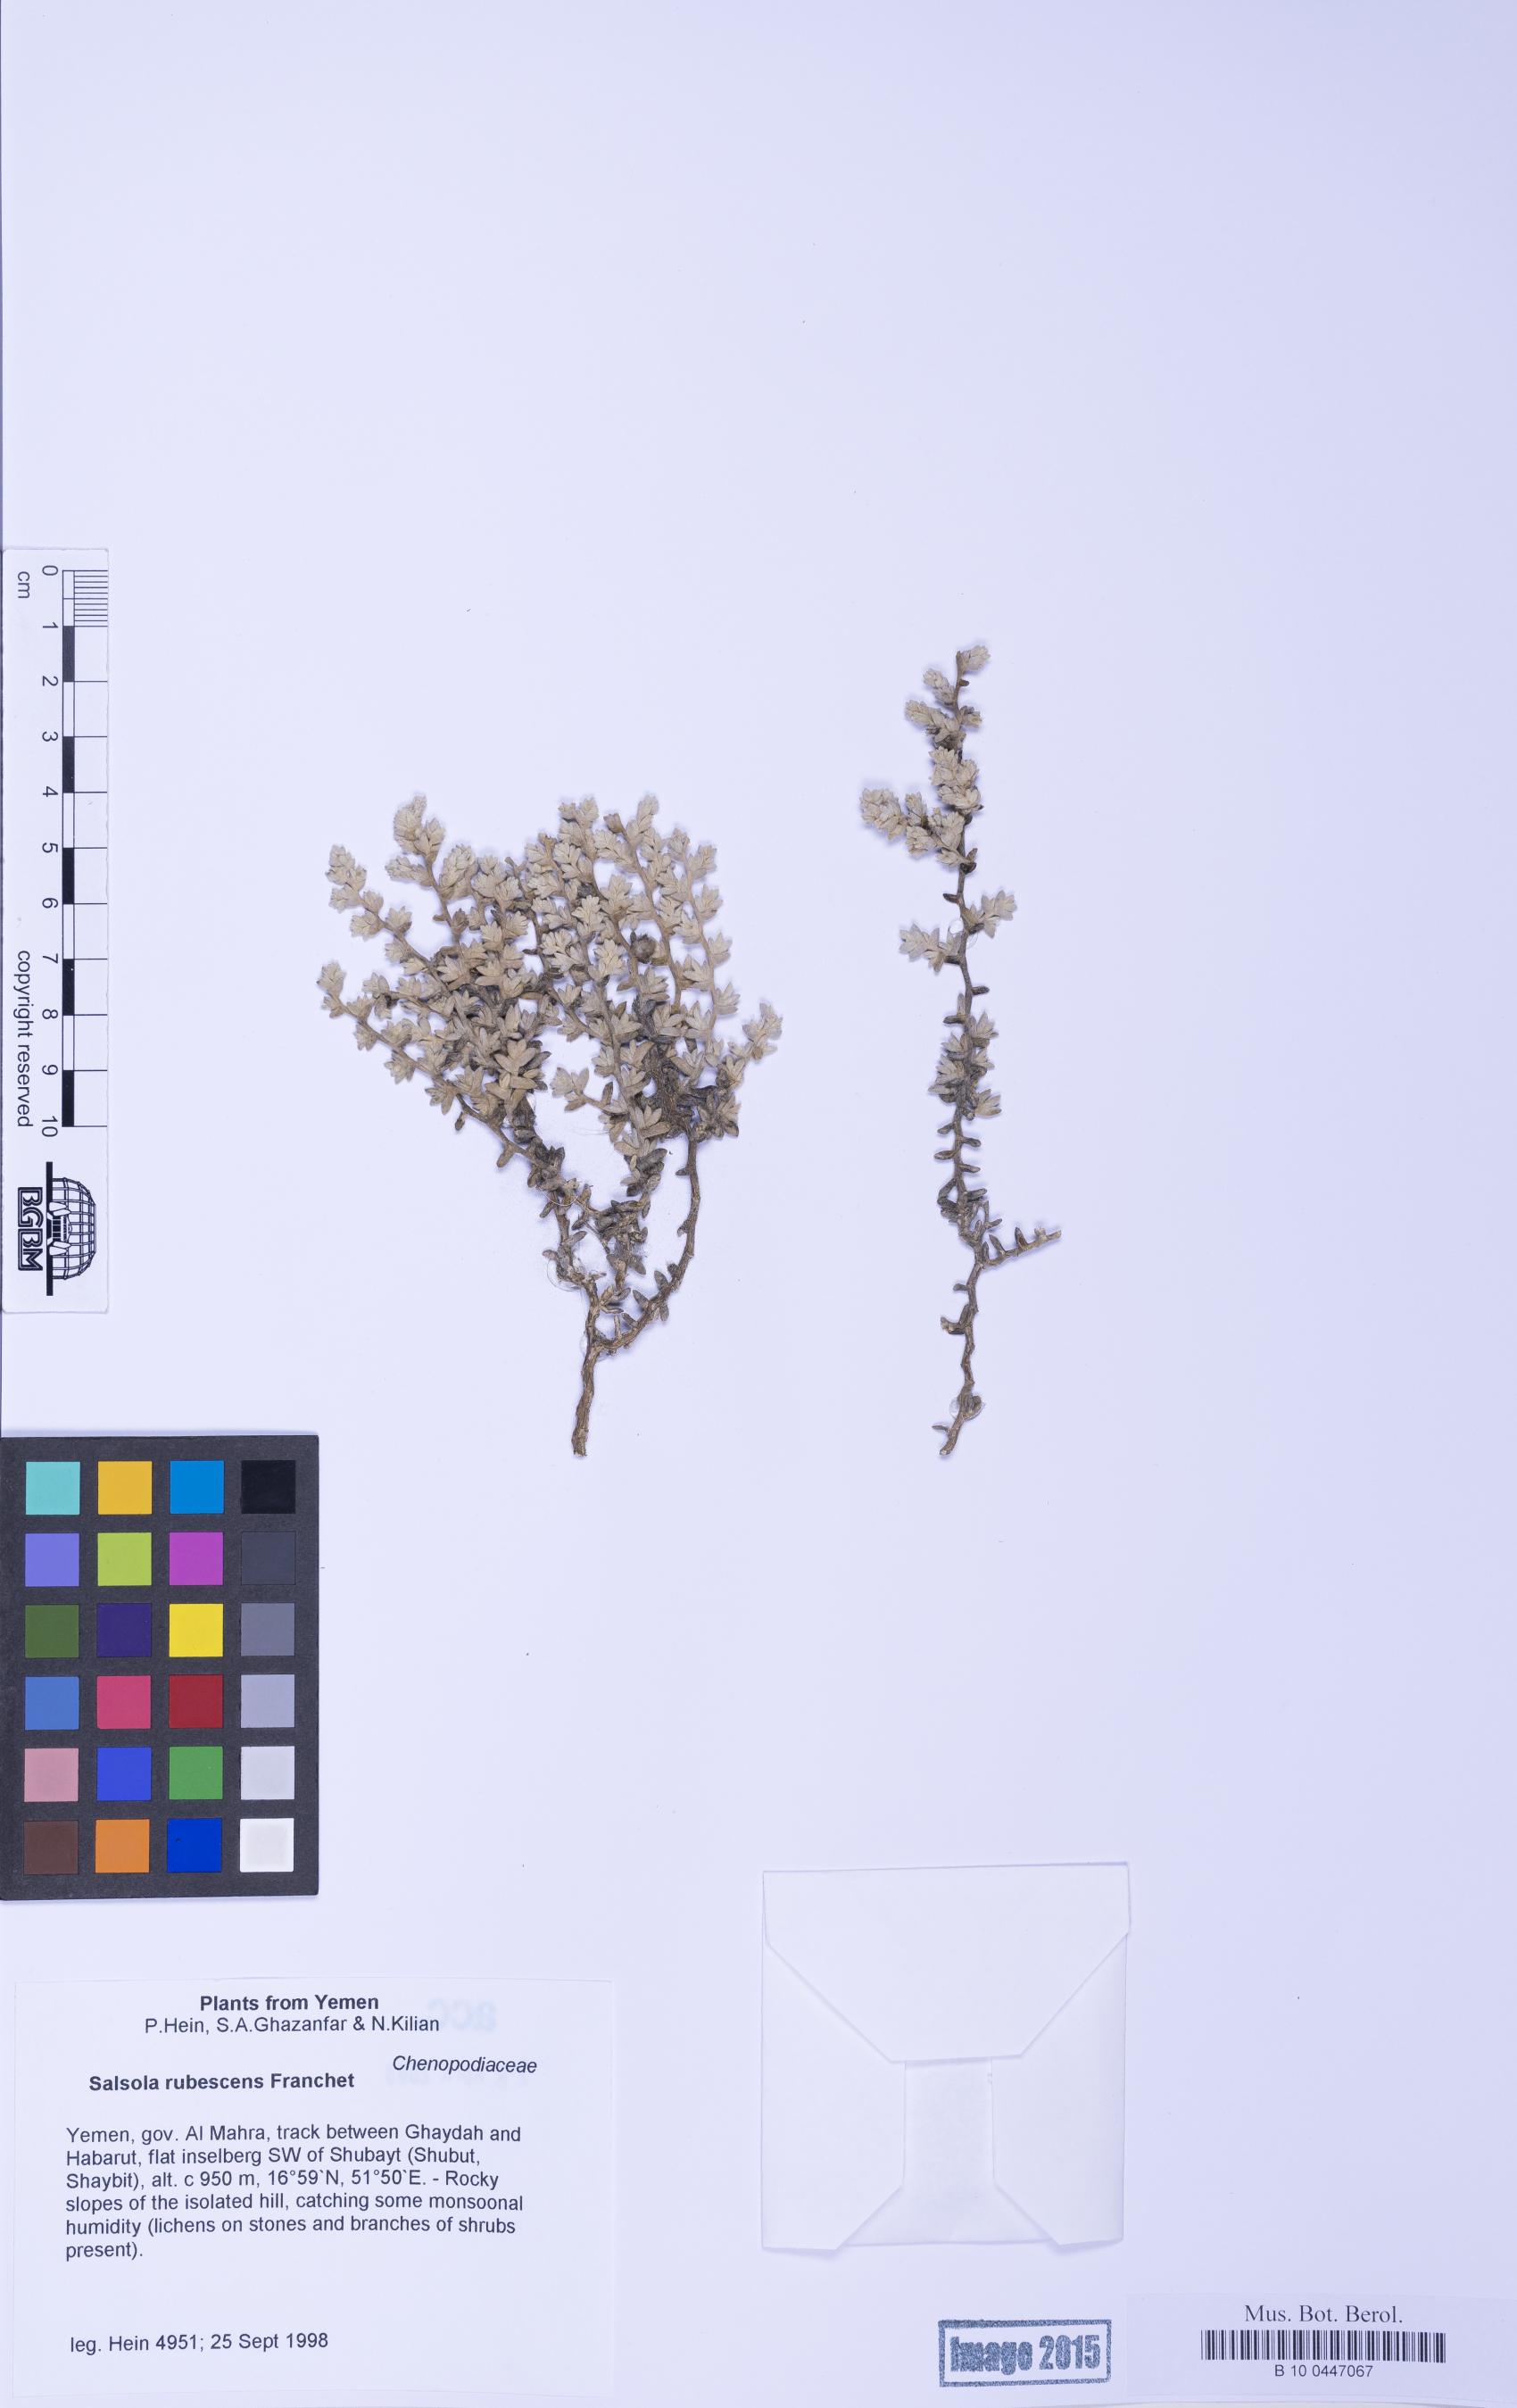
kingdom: Plantae
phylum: Tracheophyta
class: Magnoliopsida
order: Caryophyllales
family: Amaranthaceae
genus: Kaviria
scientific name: Kaviria rubescens
